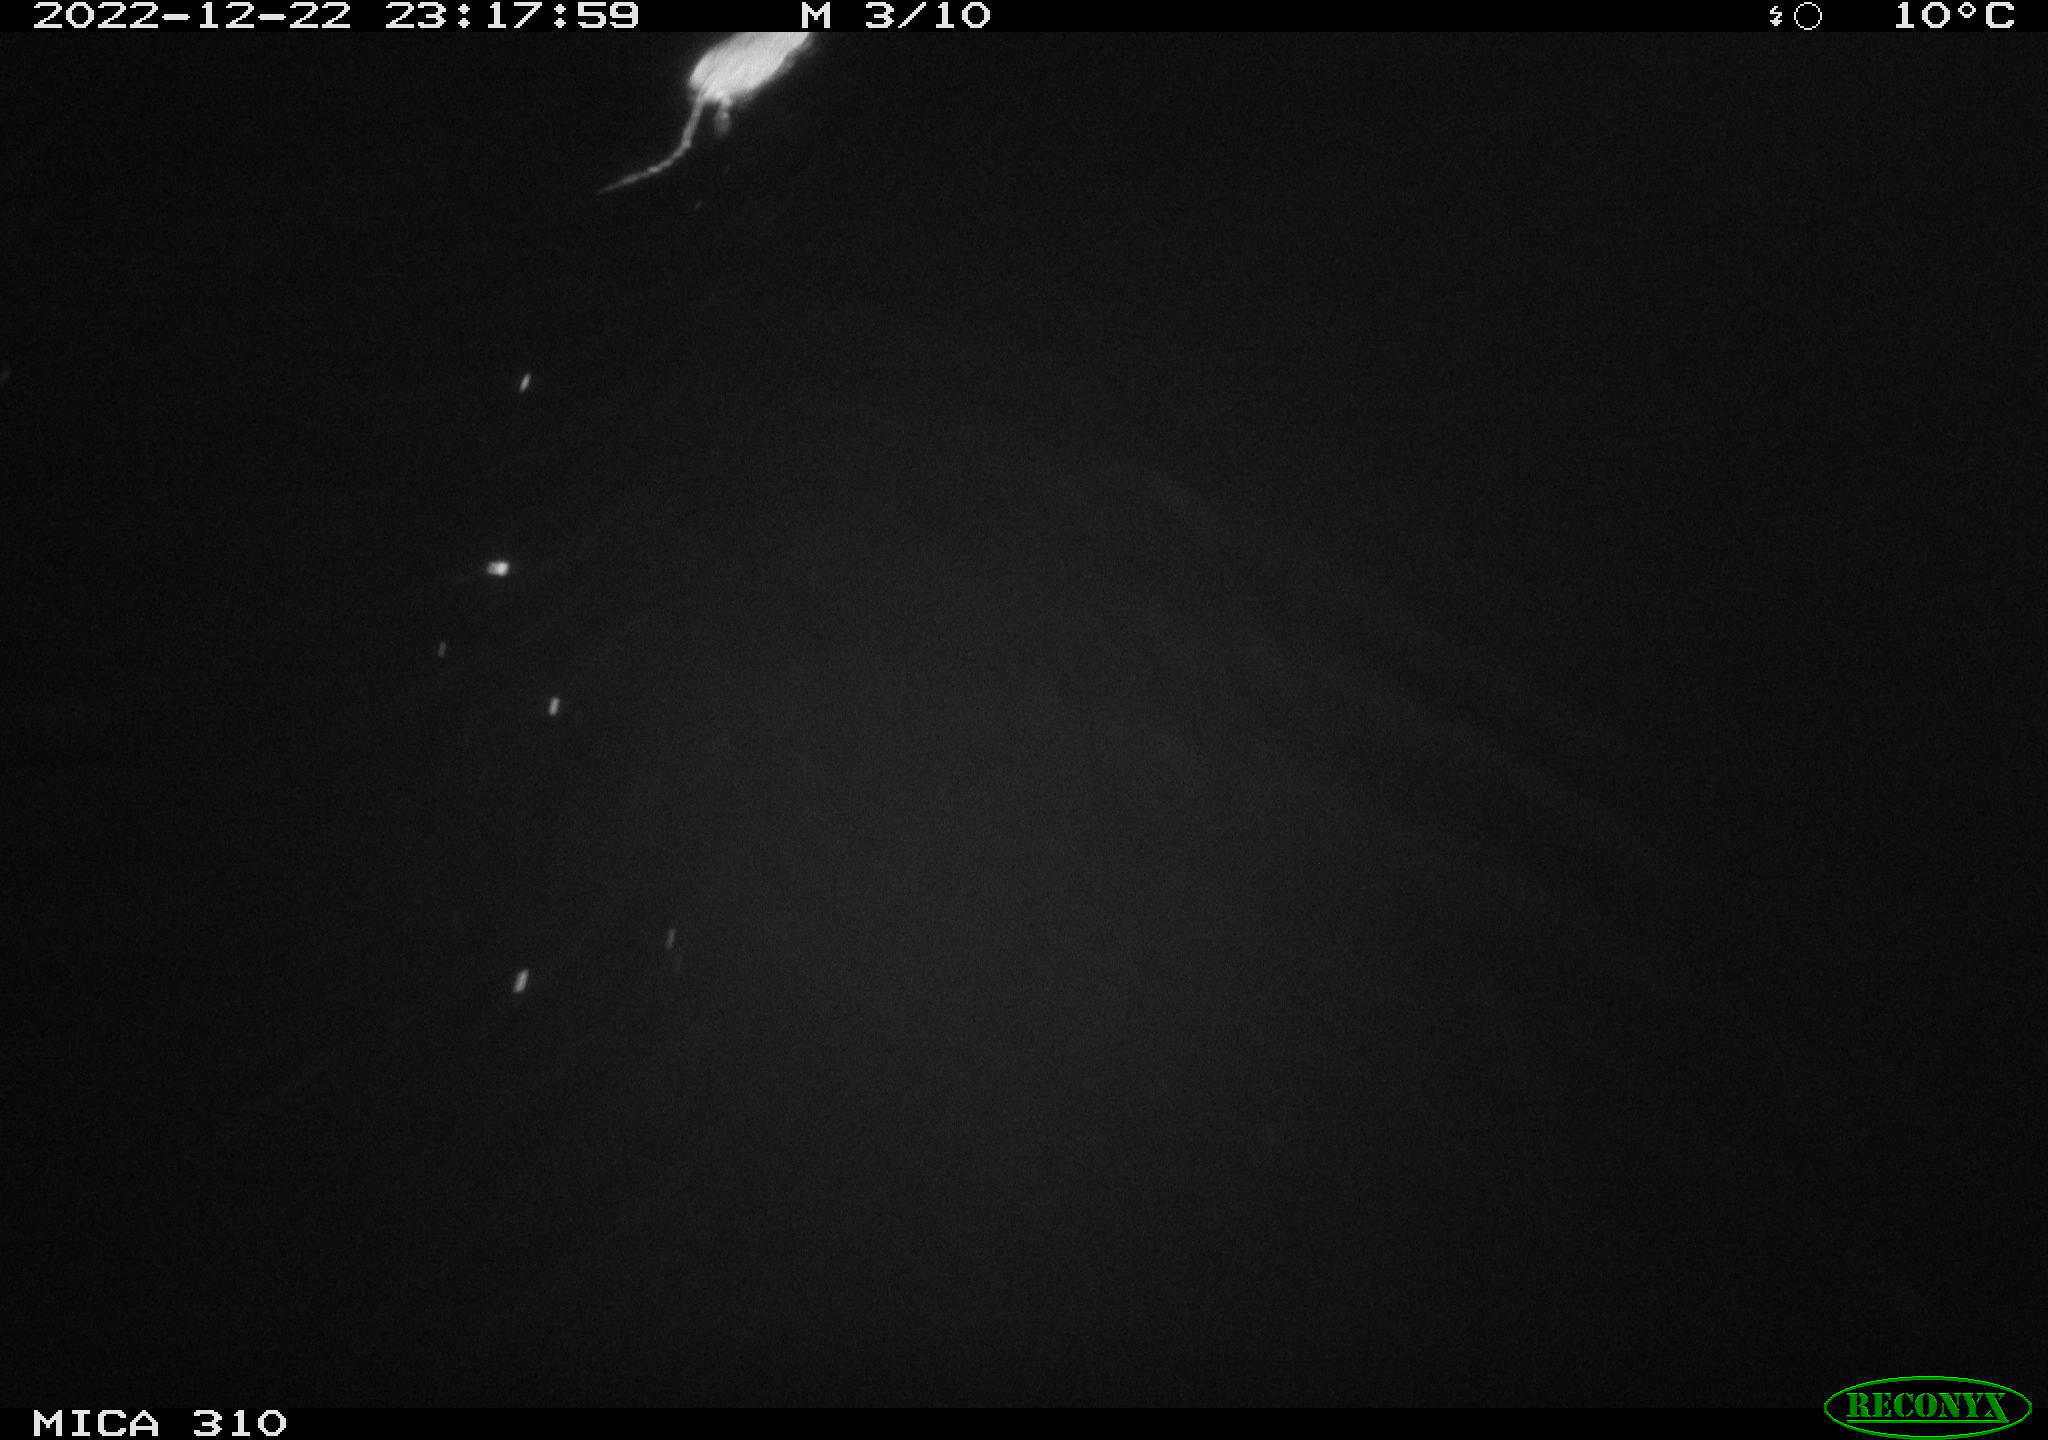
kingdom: Animalia
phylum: Chordata
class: Mammalia
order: Rodentia
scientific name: Rodentia
